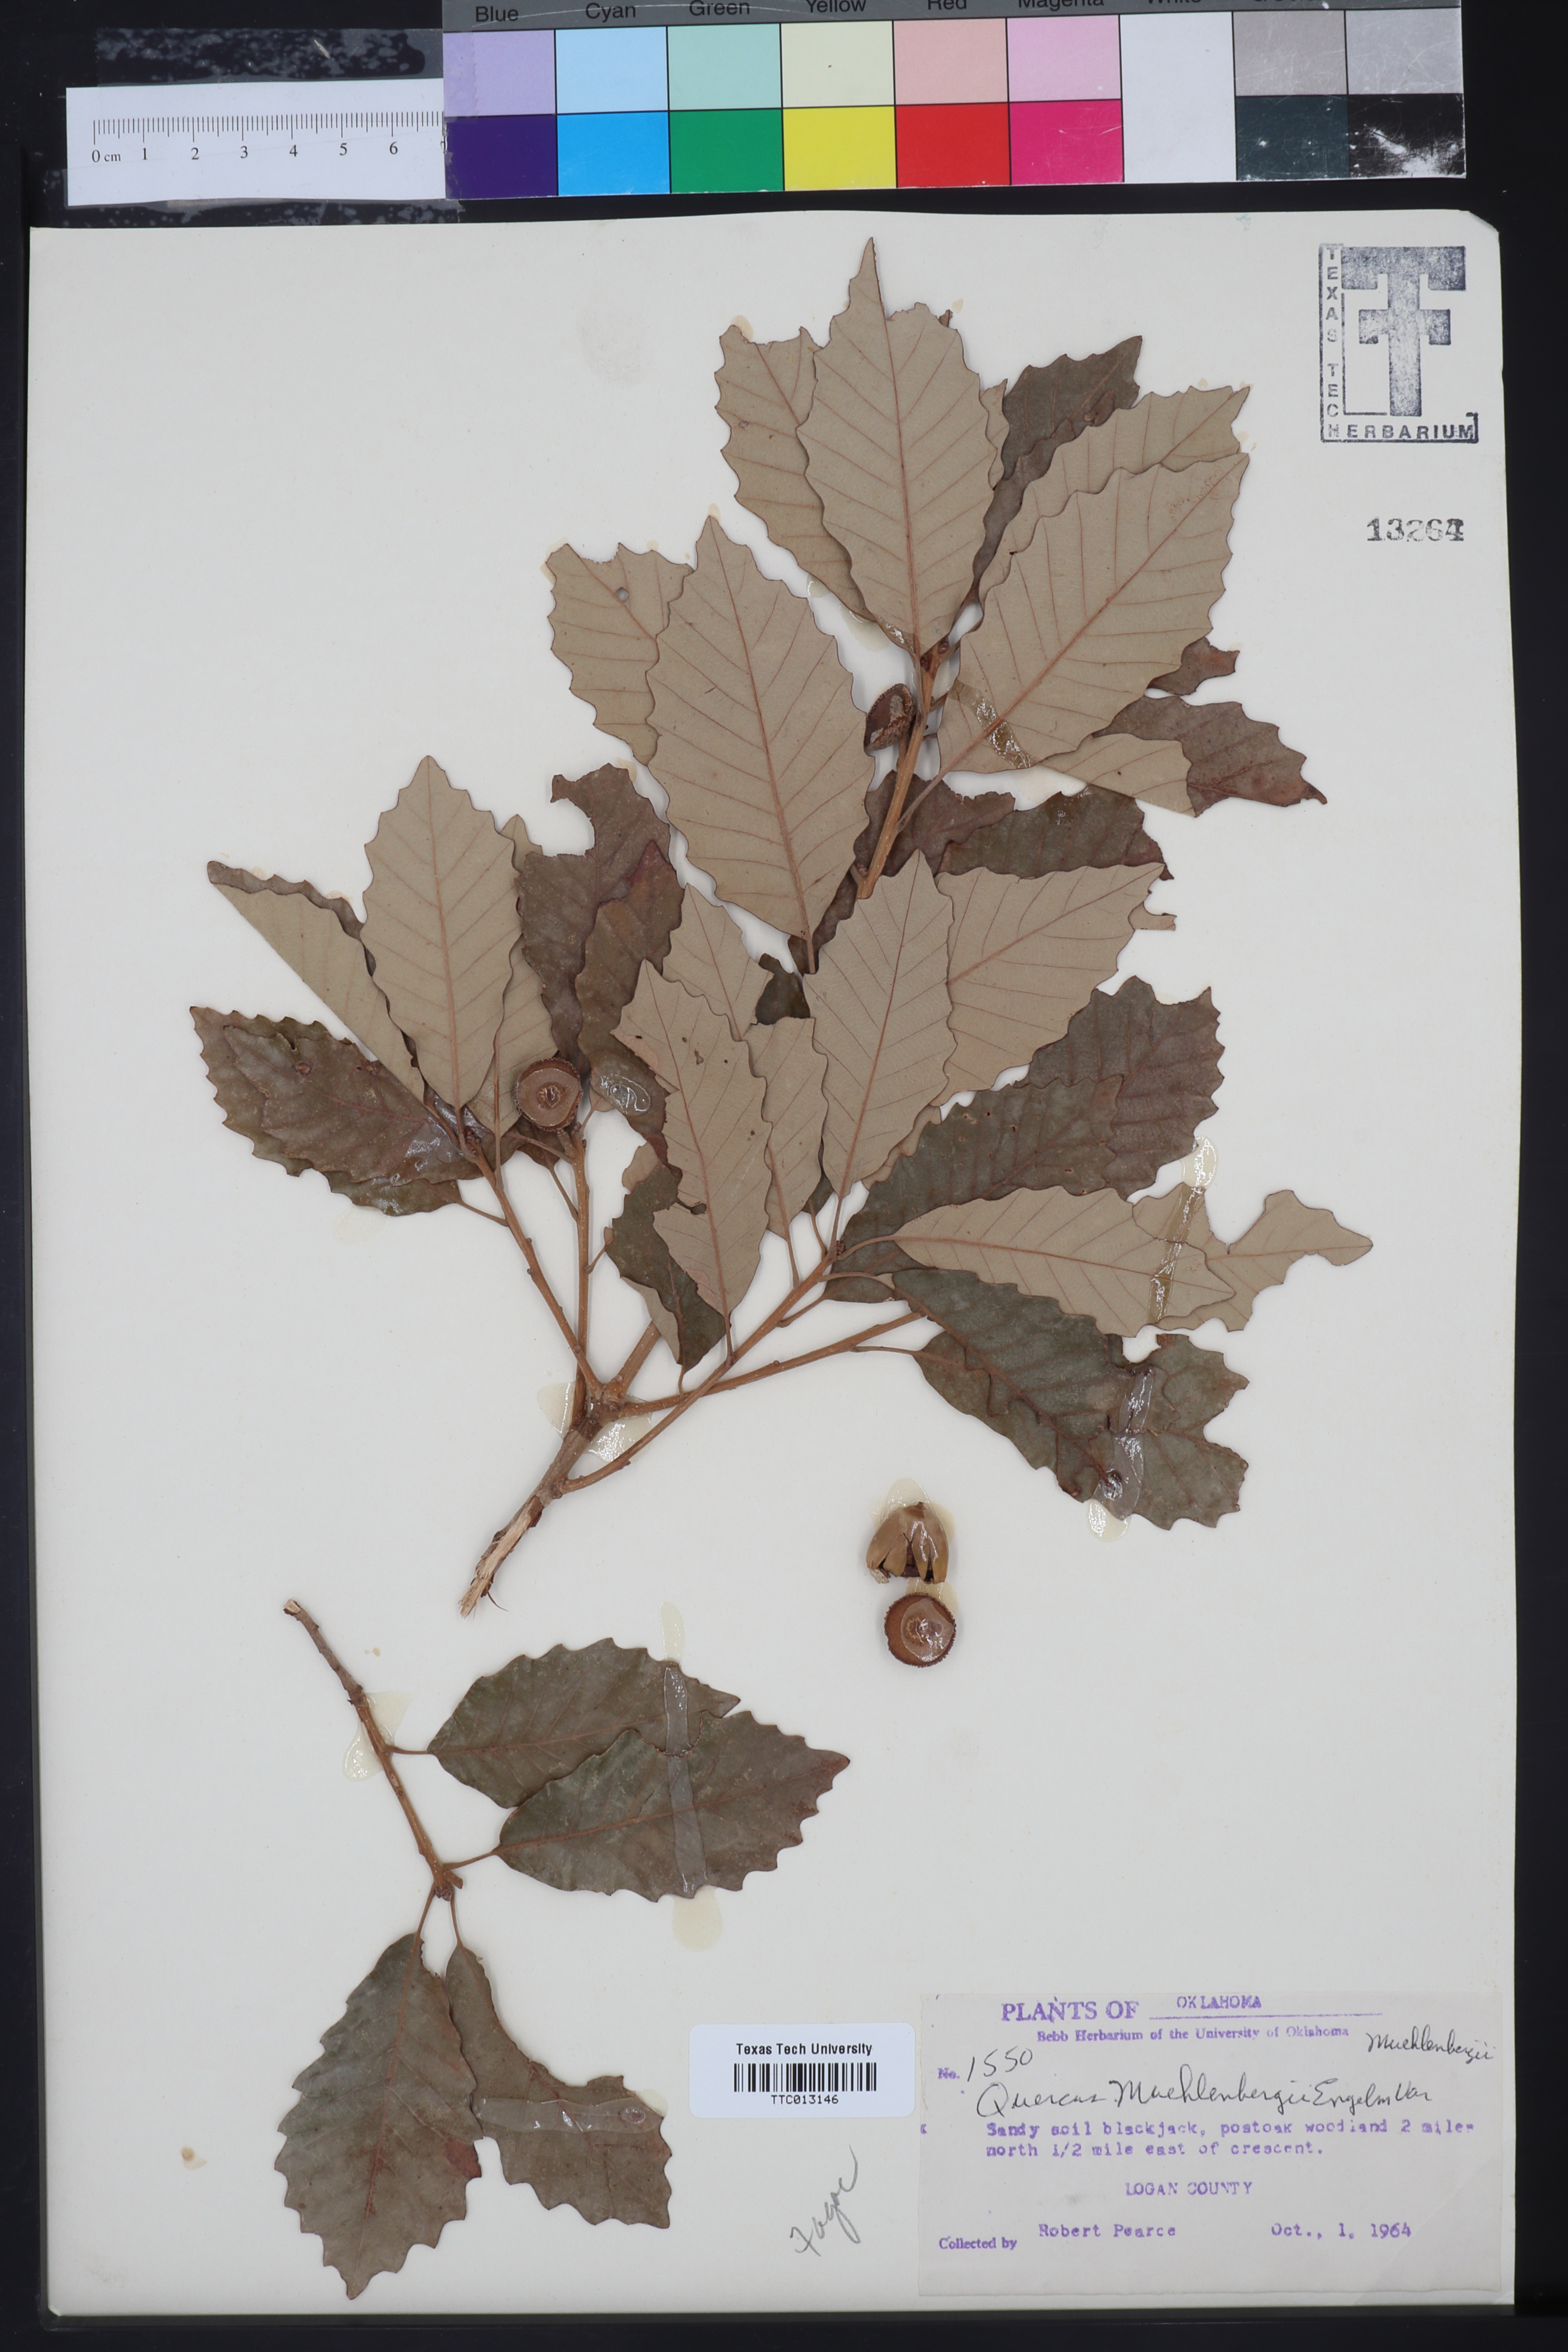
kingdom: Plantae
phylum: Tracheophyta
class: Magnoliopsida
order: Fagales
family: Fagaceae
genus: Quercus
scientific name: Quercus muehlenbergii
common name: Chinkapin oak
